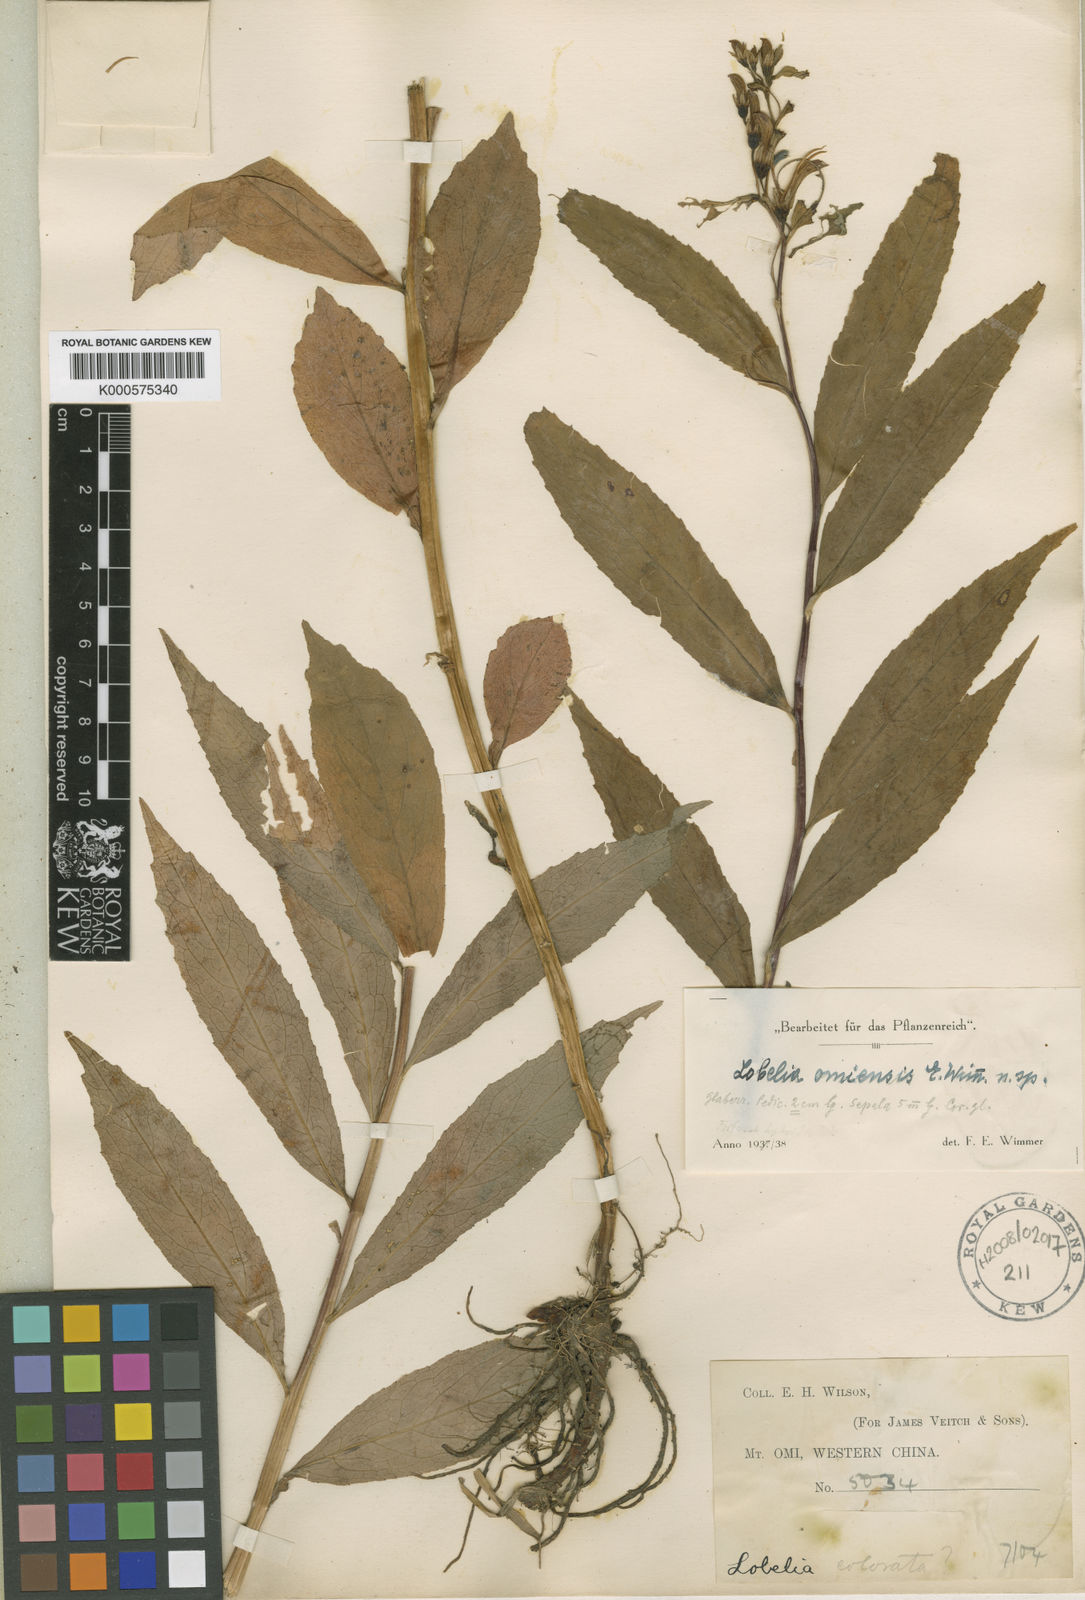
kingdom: Plantae
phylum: Tracheophyta
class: Magnoliopsida
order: Asterales
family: Campanulaceae
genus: Lobelia
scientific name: Lobelia fangiana
